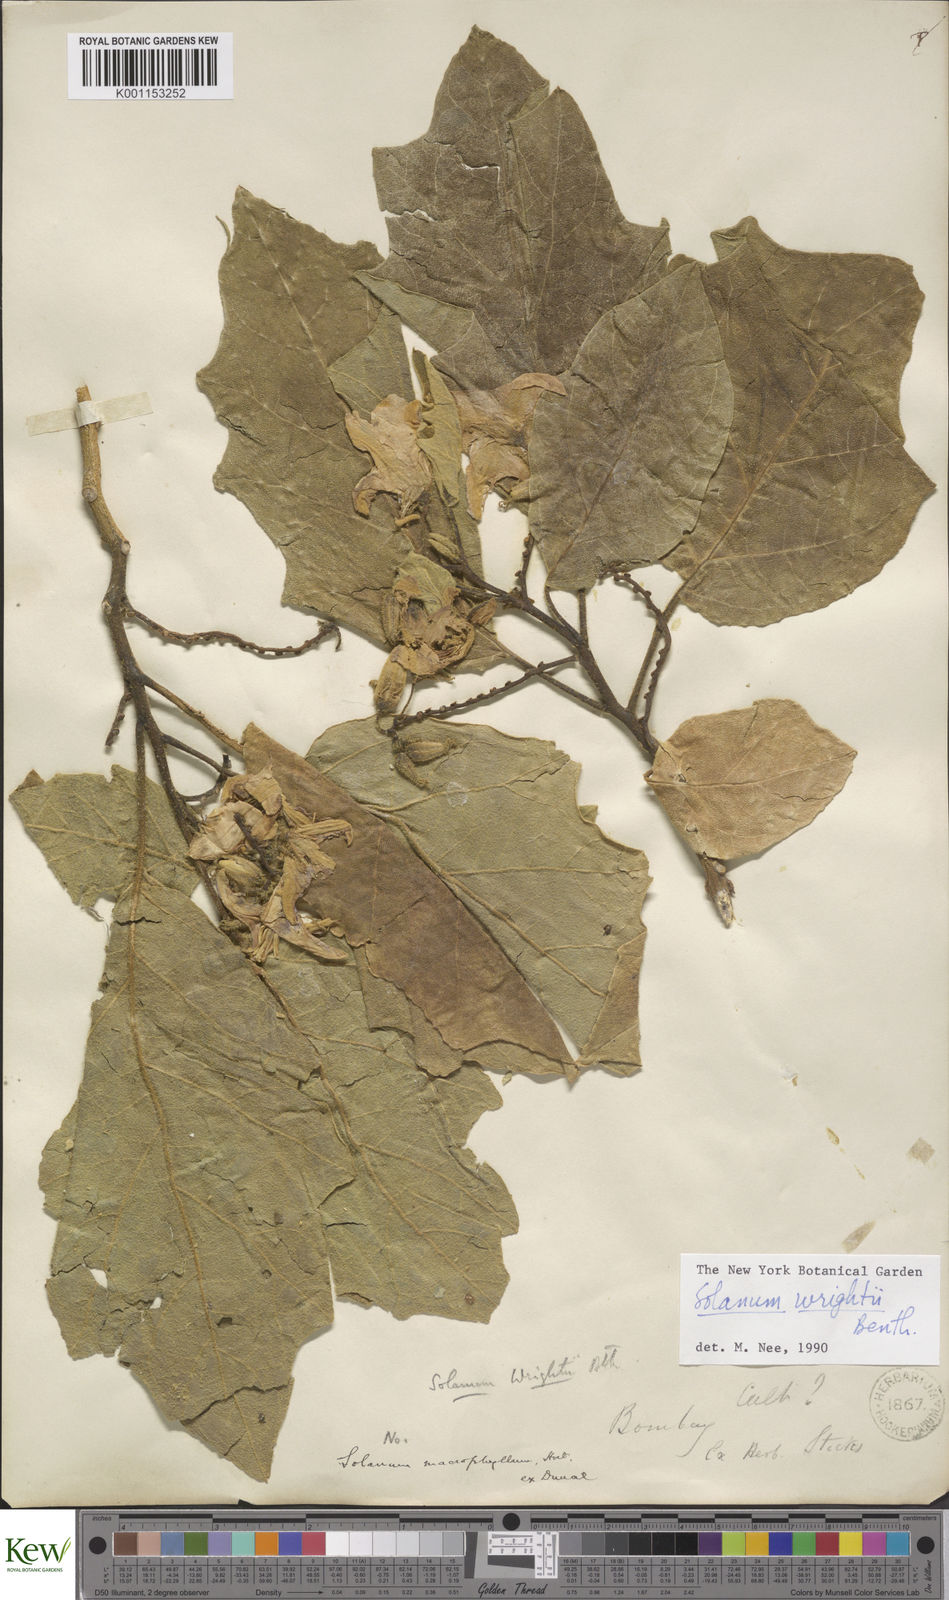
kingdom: Plantae
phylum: Tracheophyta
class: Magnoliopsida
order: Solanales
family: Solanaceae
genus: Solanum
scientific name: Solanum wrightii
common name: Brazilian potato-tree
